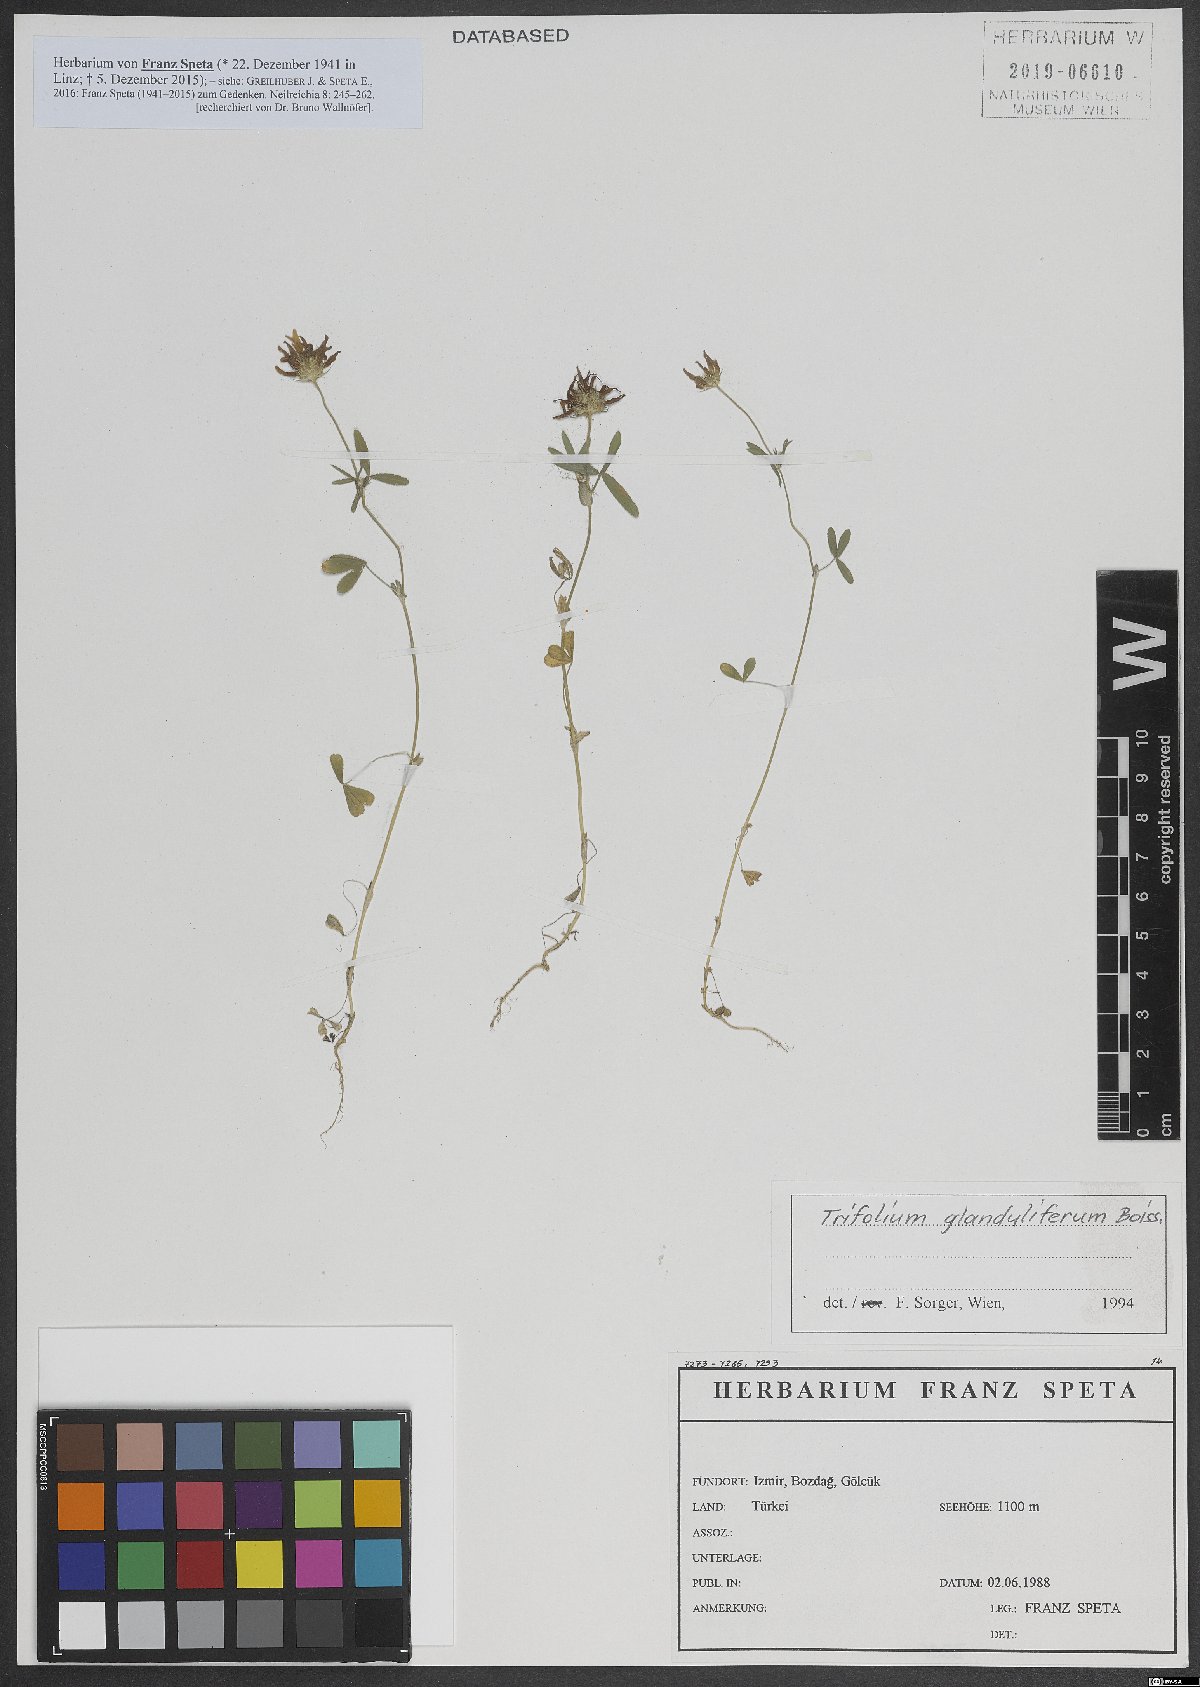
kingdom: Plantae
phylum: Tracheophyta
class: Magnoliopsida
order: Fabales
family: Fabaceae
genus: Trifolium
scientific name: Trifolium glanduliferum
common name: Glandular clover
